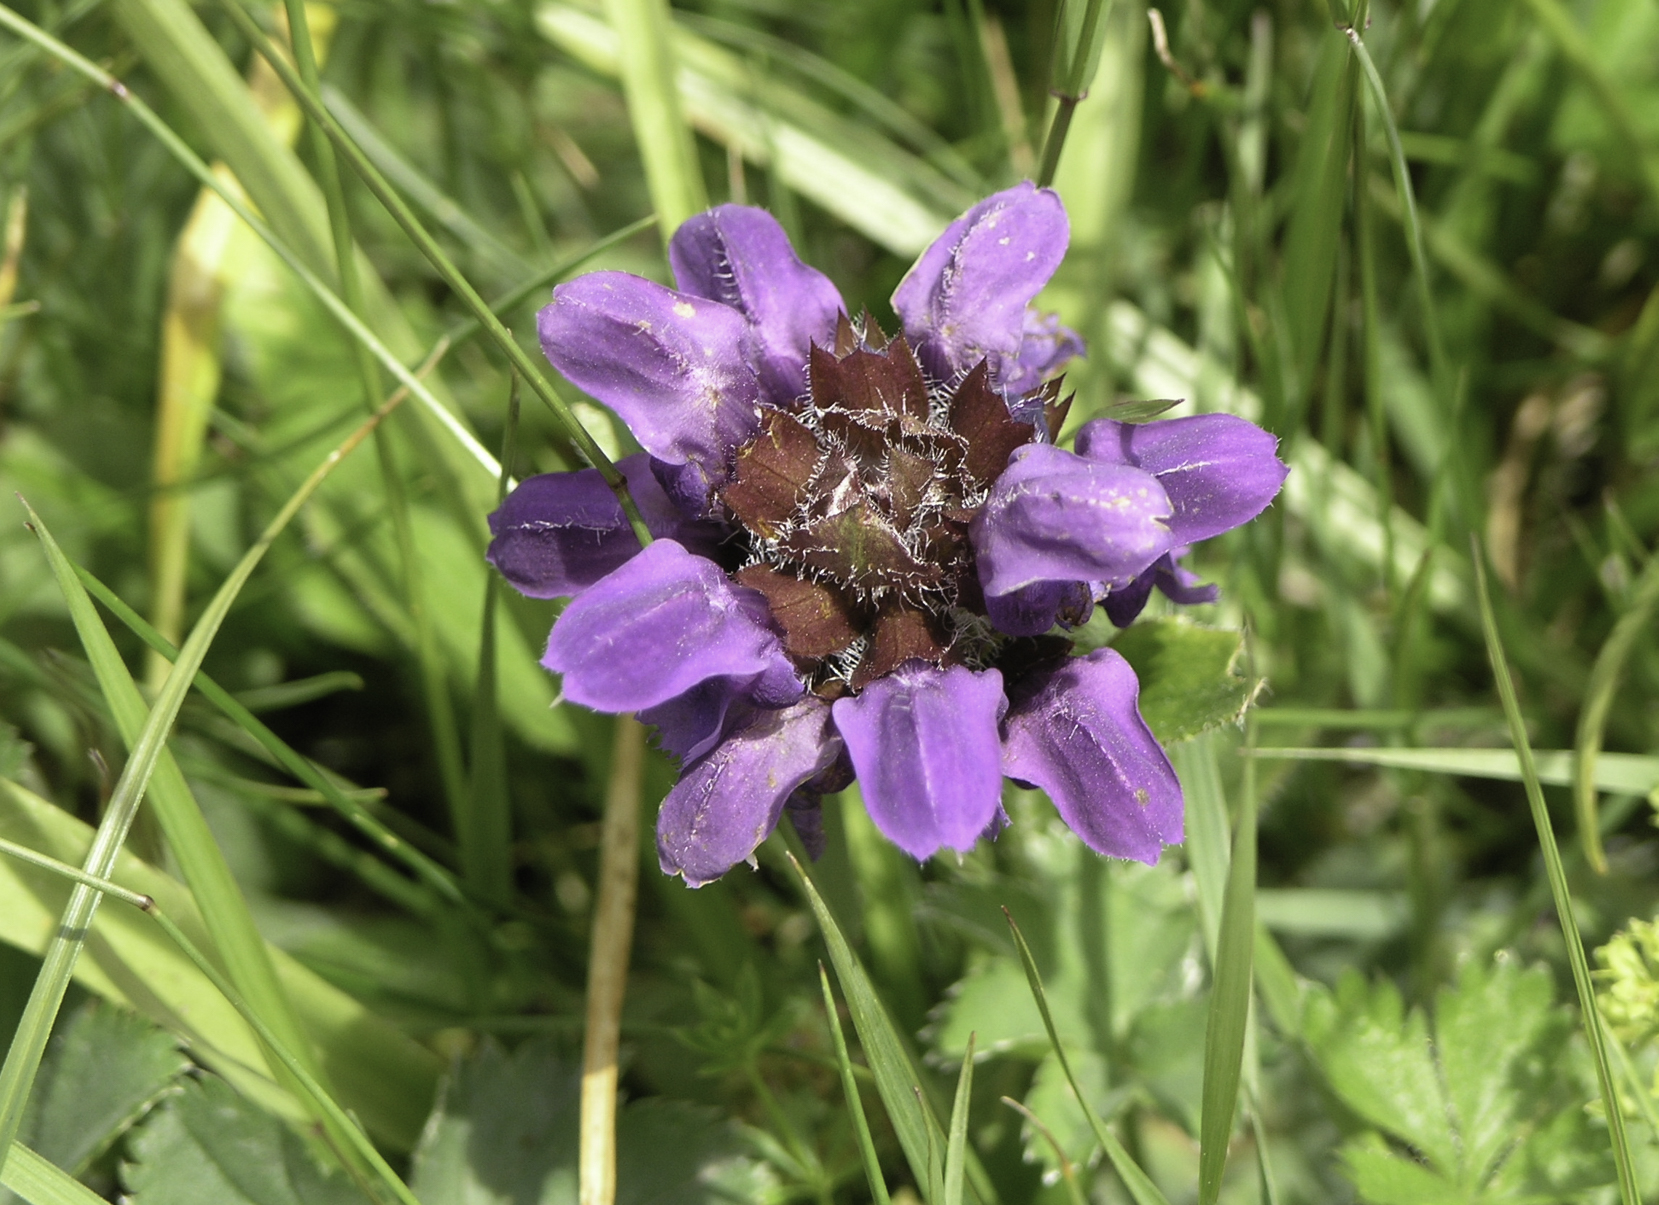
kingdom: Plantae
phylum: Tracheophyta
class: Magnoliopsida
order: Lamiales
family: Lamiaceae
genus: Prunella
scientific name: Prunella grandiflora
